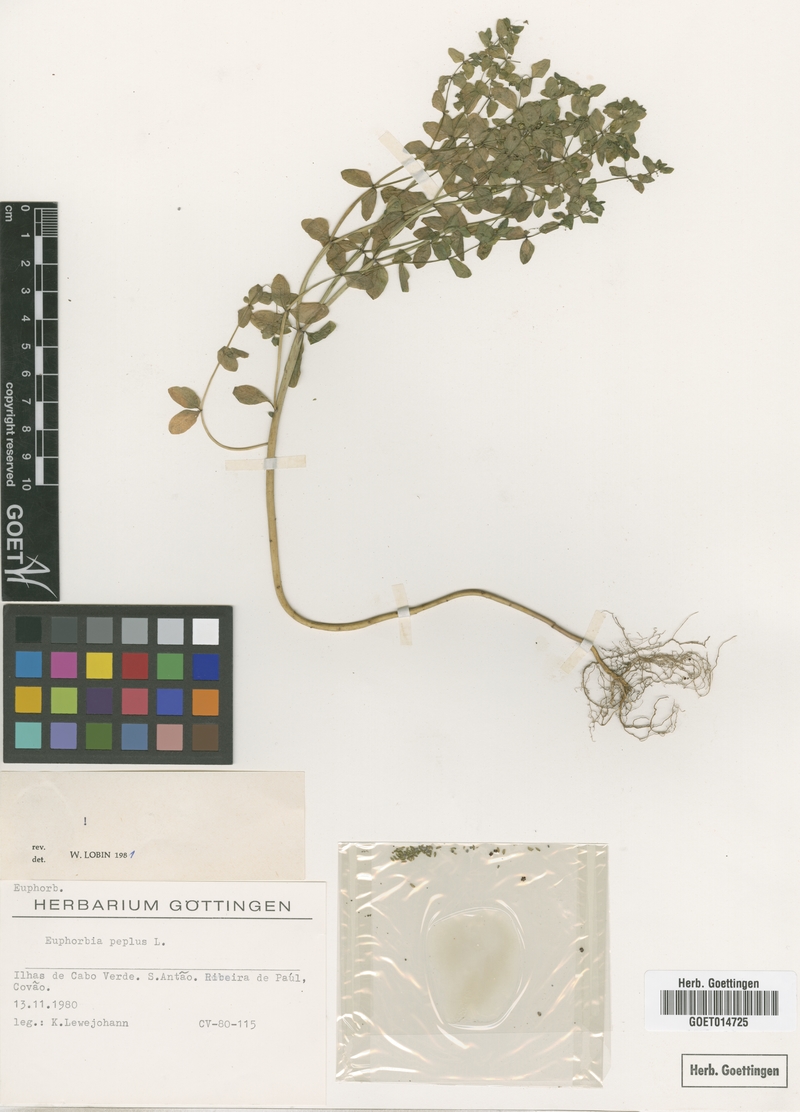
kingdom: Plantae
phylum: Tracheophyta
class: Magnoliopsida
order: Malpighiales
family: Euphorbiaceae
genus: Euphorbia
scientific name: Euphorbia peplus
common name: Petty spurge
